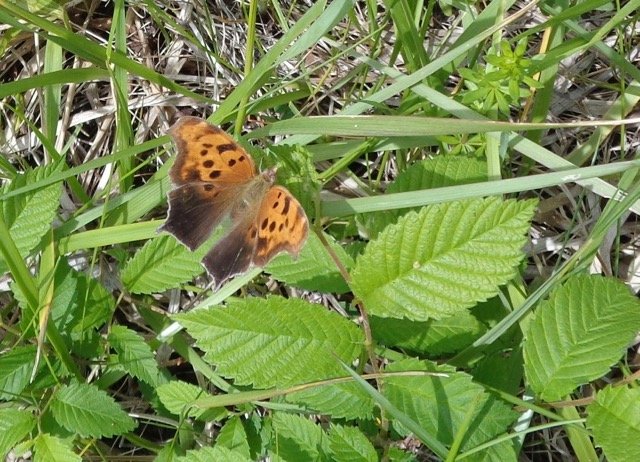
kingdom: Animalia
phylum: Arthropoda
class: Insecta
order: Lepidoptera
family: Nymphalidae
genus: Polygonia
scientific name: Polygonia interrogationis
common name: Question Mark
